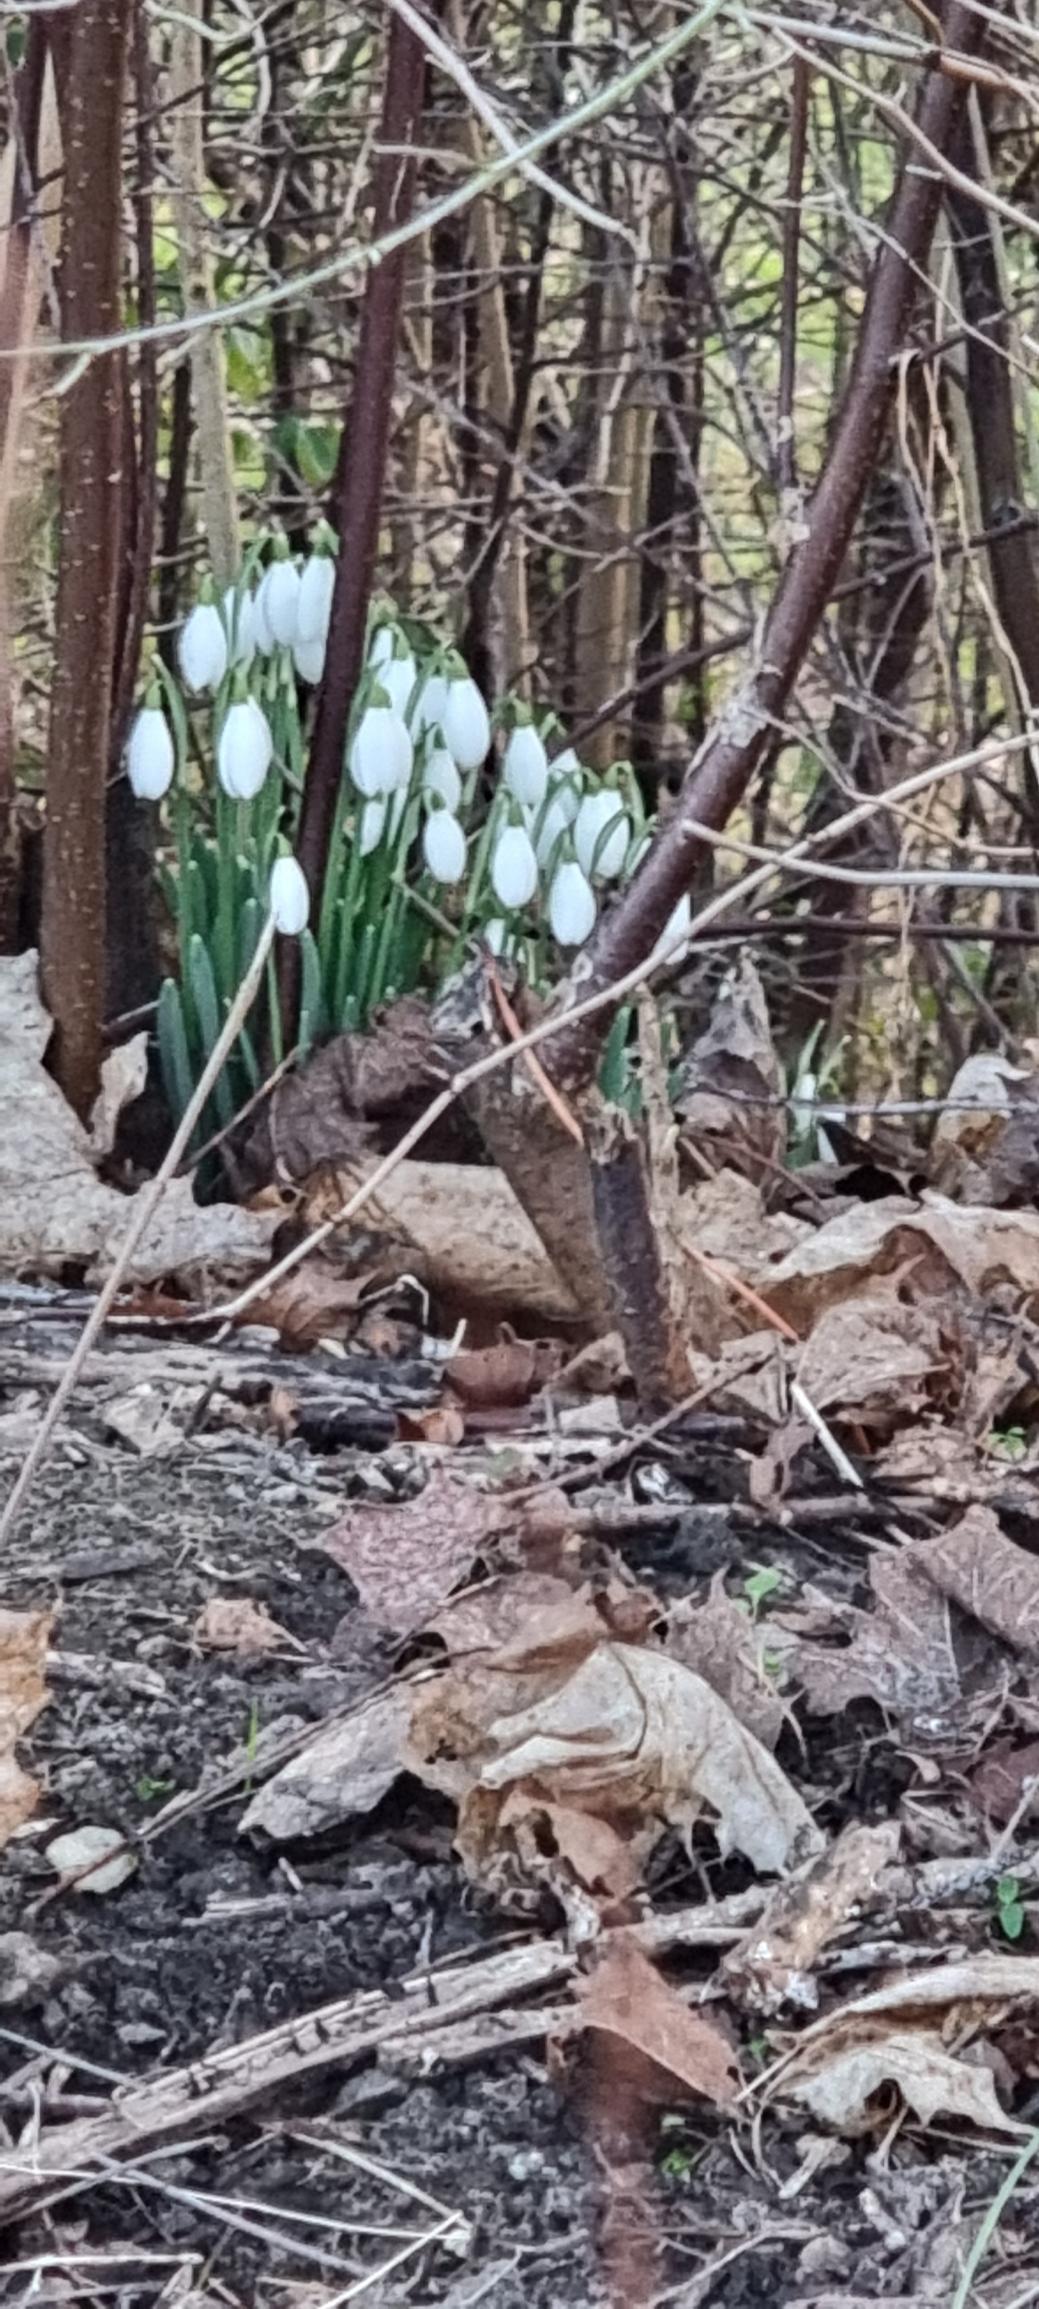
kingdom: Plantae
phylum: Tracheophyta
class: Liliopsida
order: Asparagales
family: Amaryllidaceae
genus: Galanthus
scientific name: Galanthus nivalis
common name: Vintergæk
